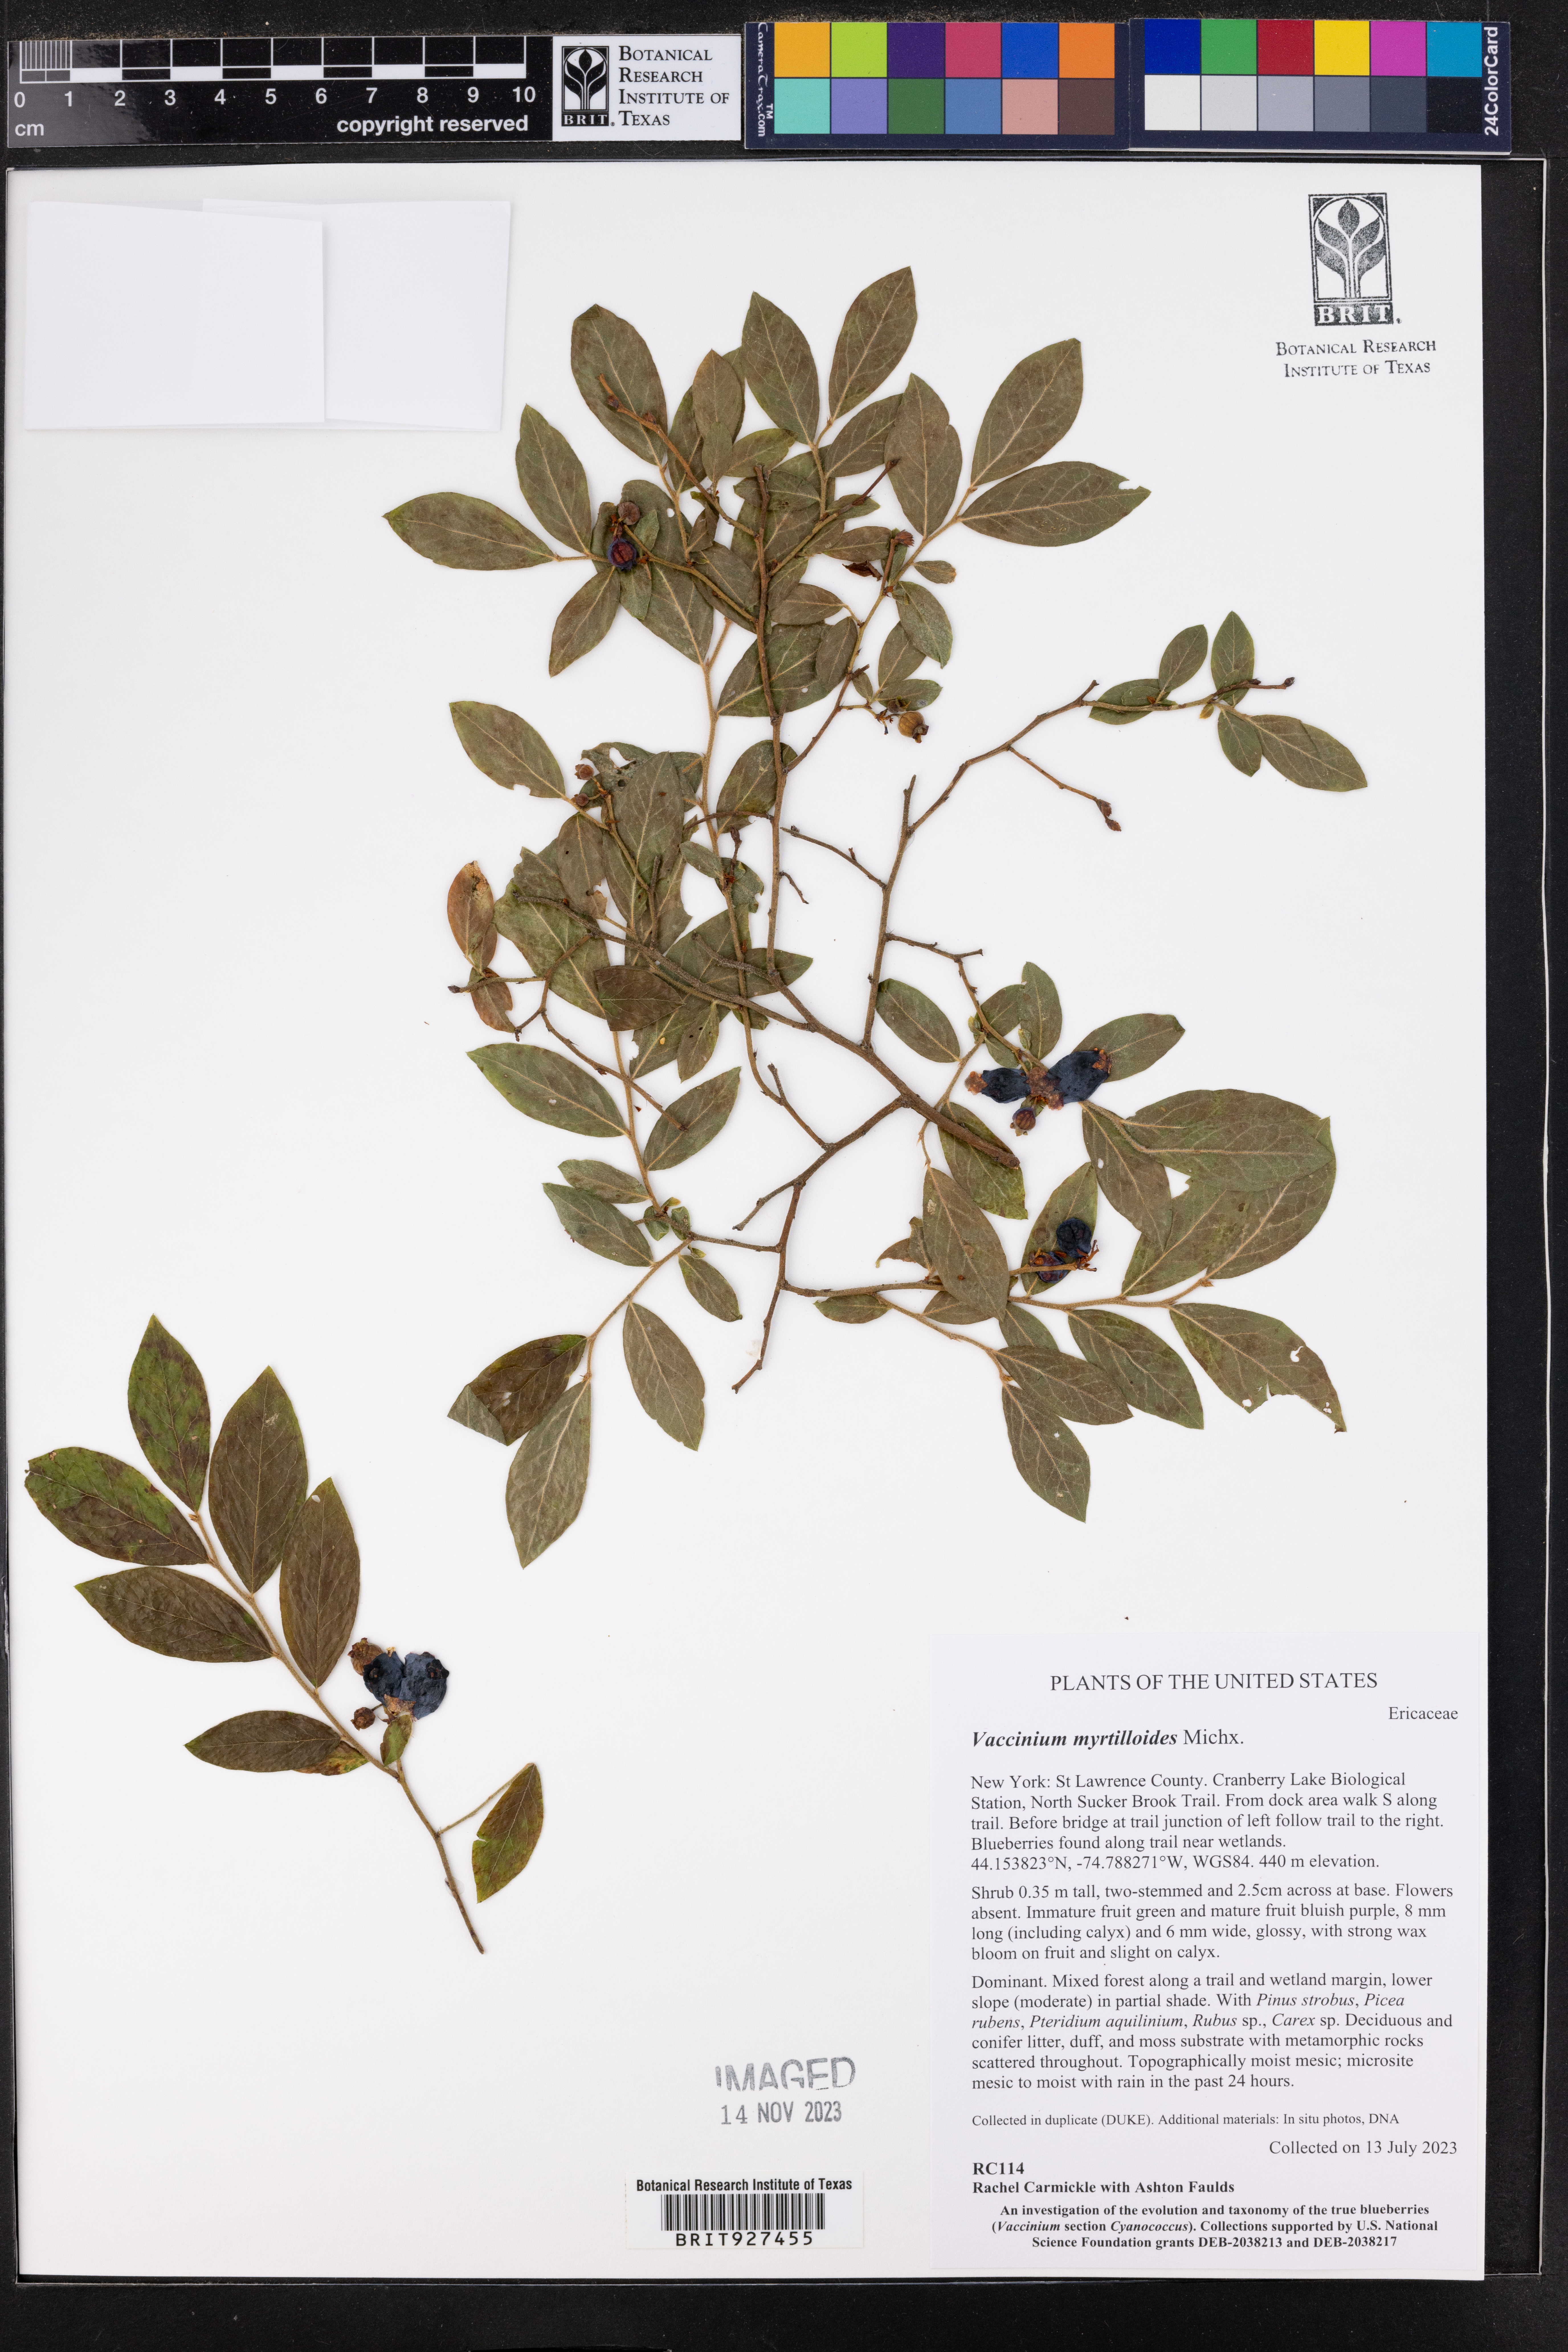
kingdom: Plantae
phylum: Tracheophyta
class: Magnoliopsida
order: Ericales
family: Ericaceae
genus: Vaccinium
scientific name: Vaccinium myrtilloides
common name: Canada blueberry
